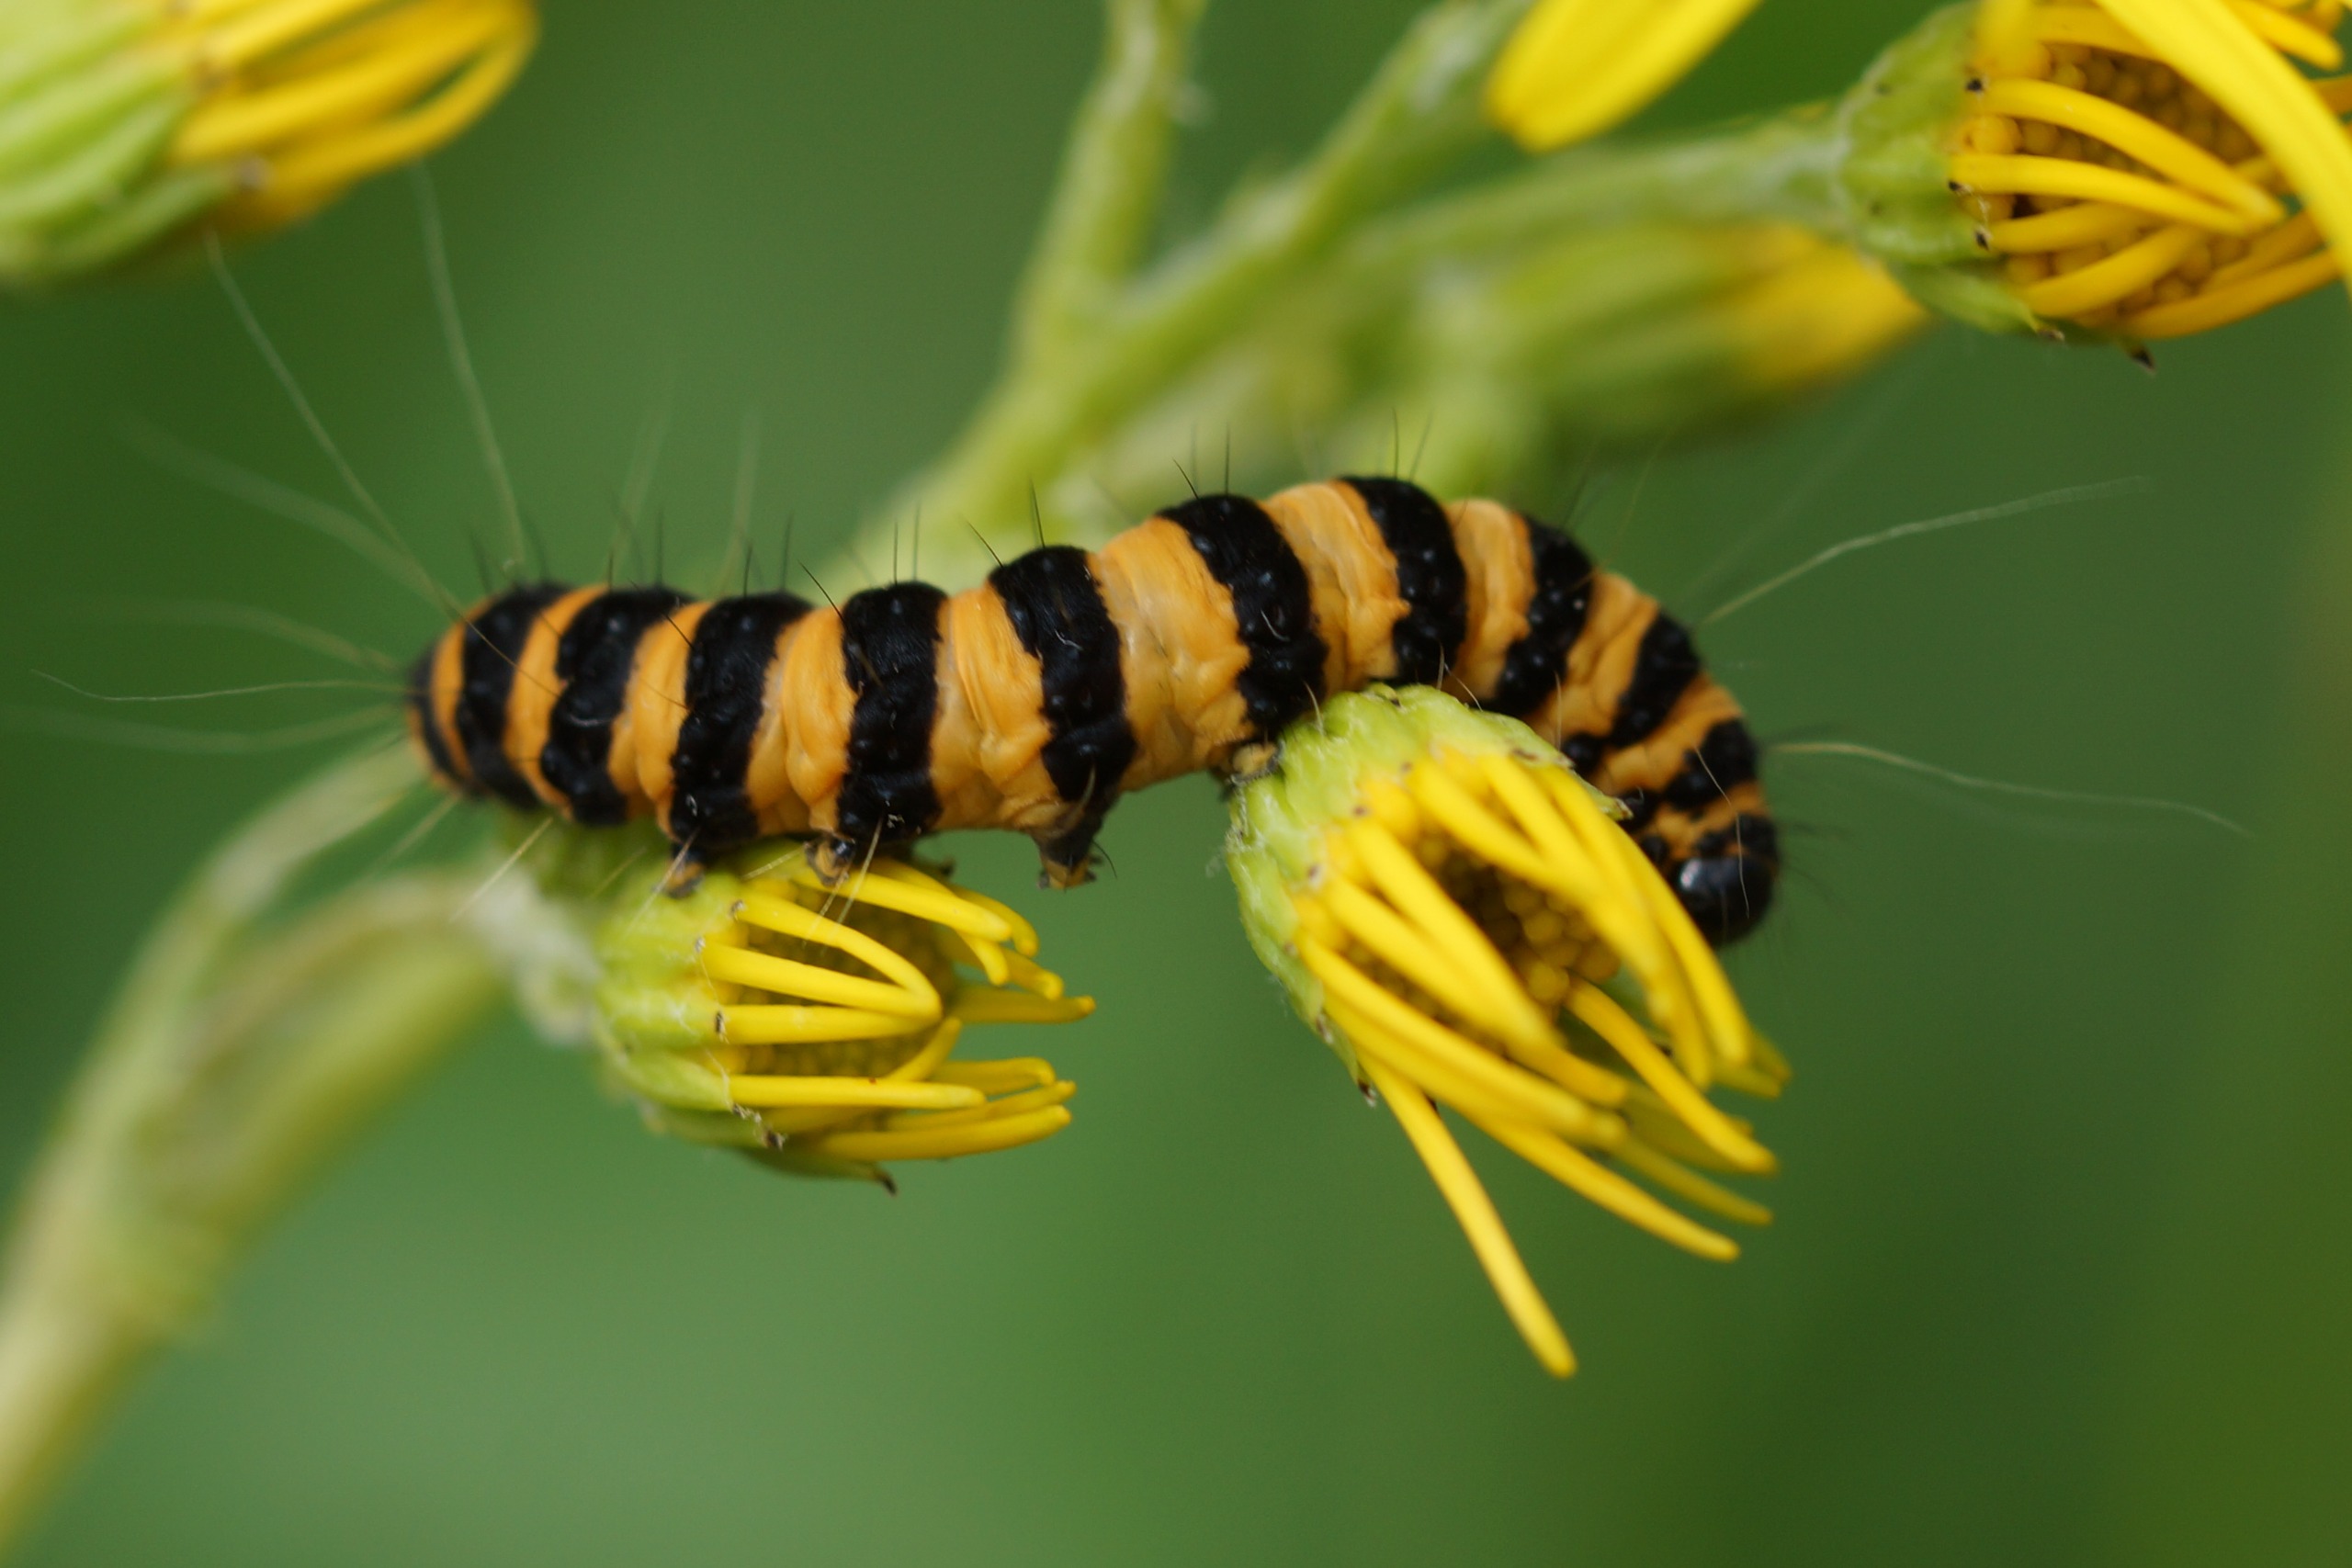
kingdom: Animalia
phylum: Arthropoda
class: Insecta
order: Lepidoptera
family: Erebidae
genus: Tyria
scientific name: Tyria jacobaeae
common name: Blodplet
